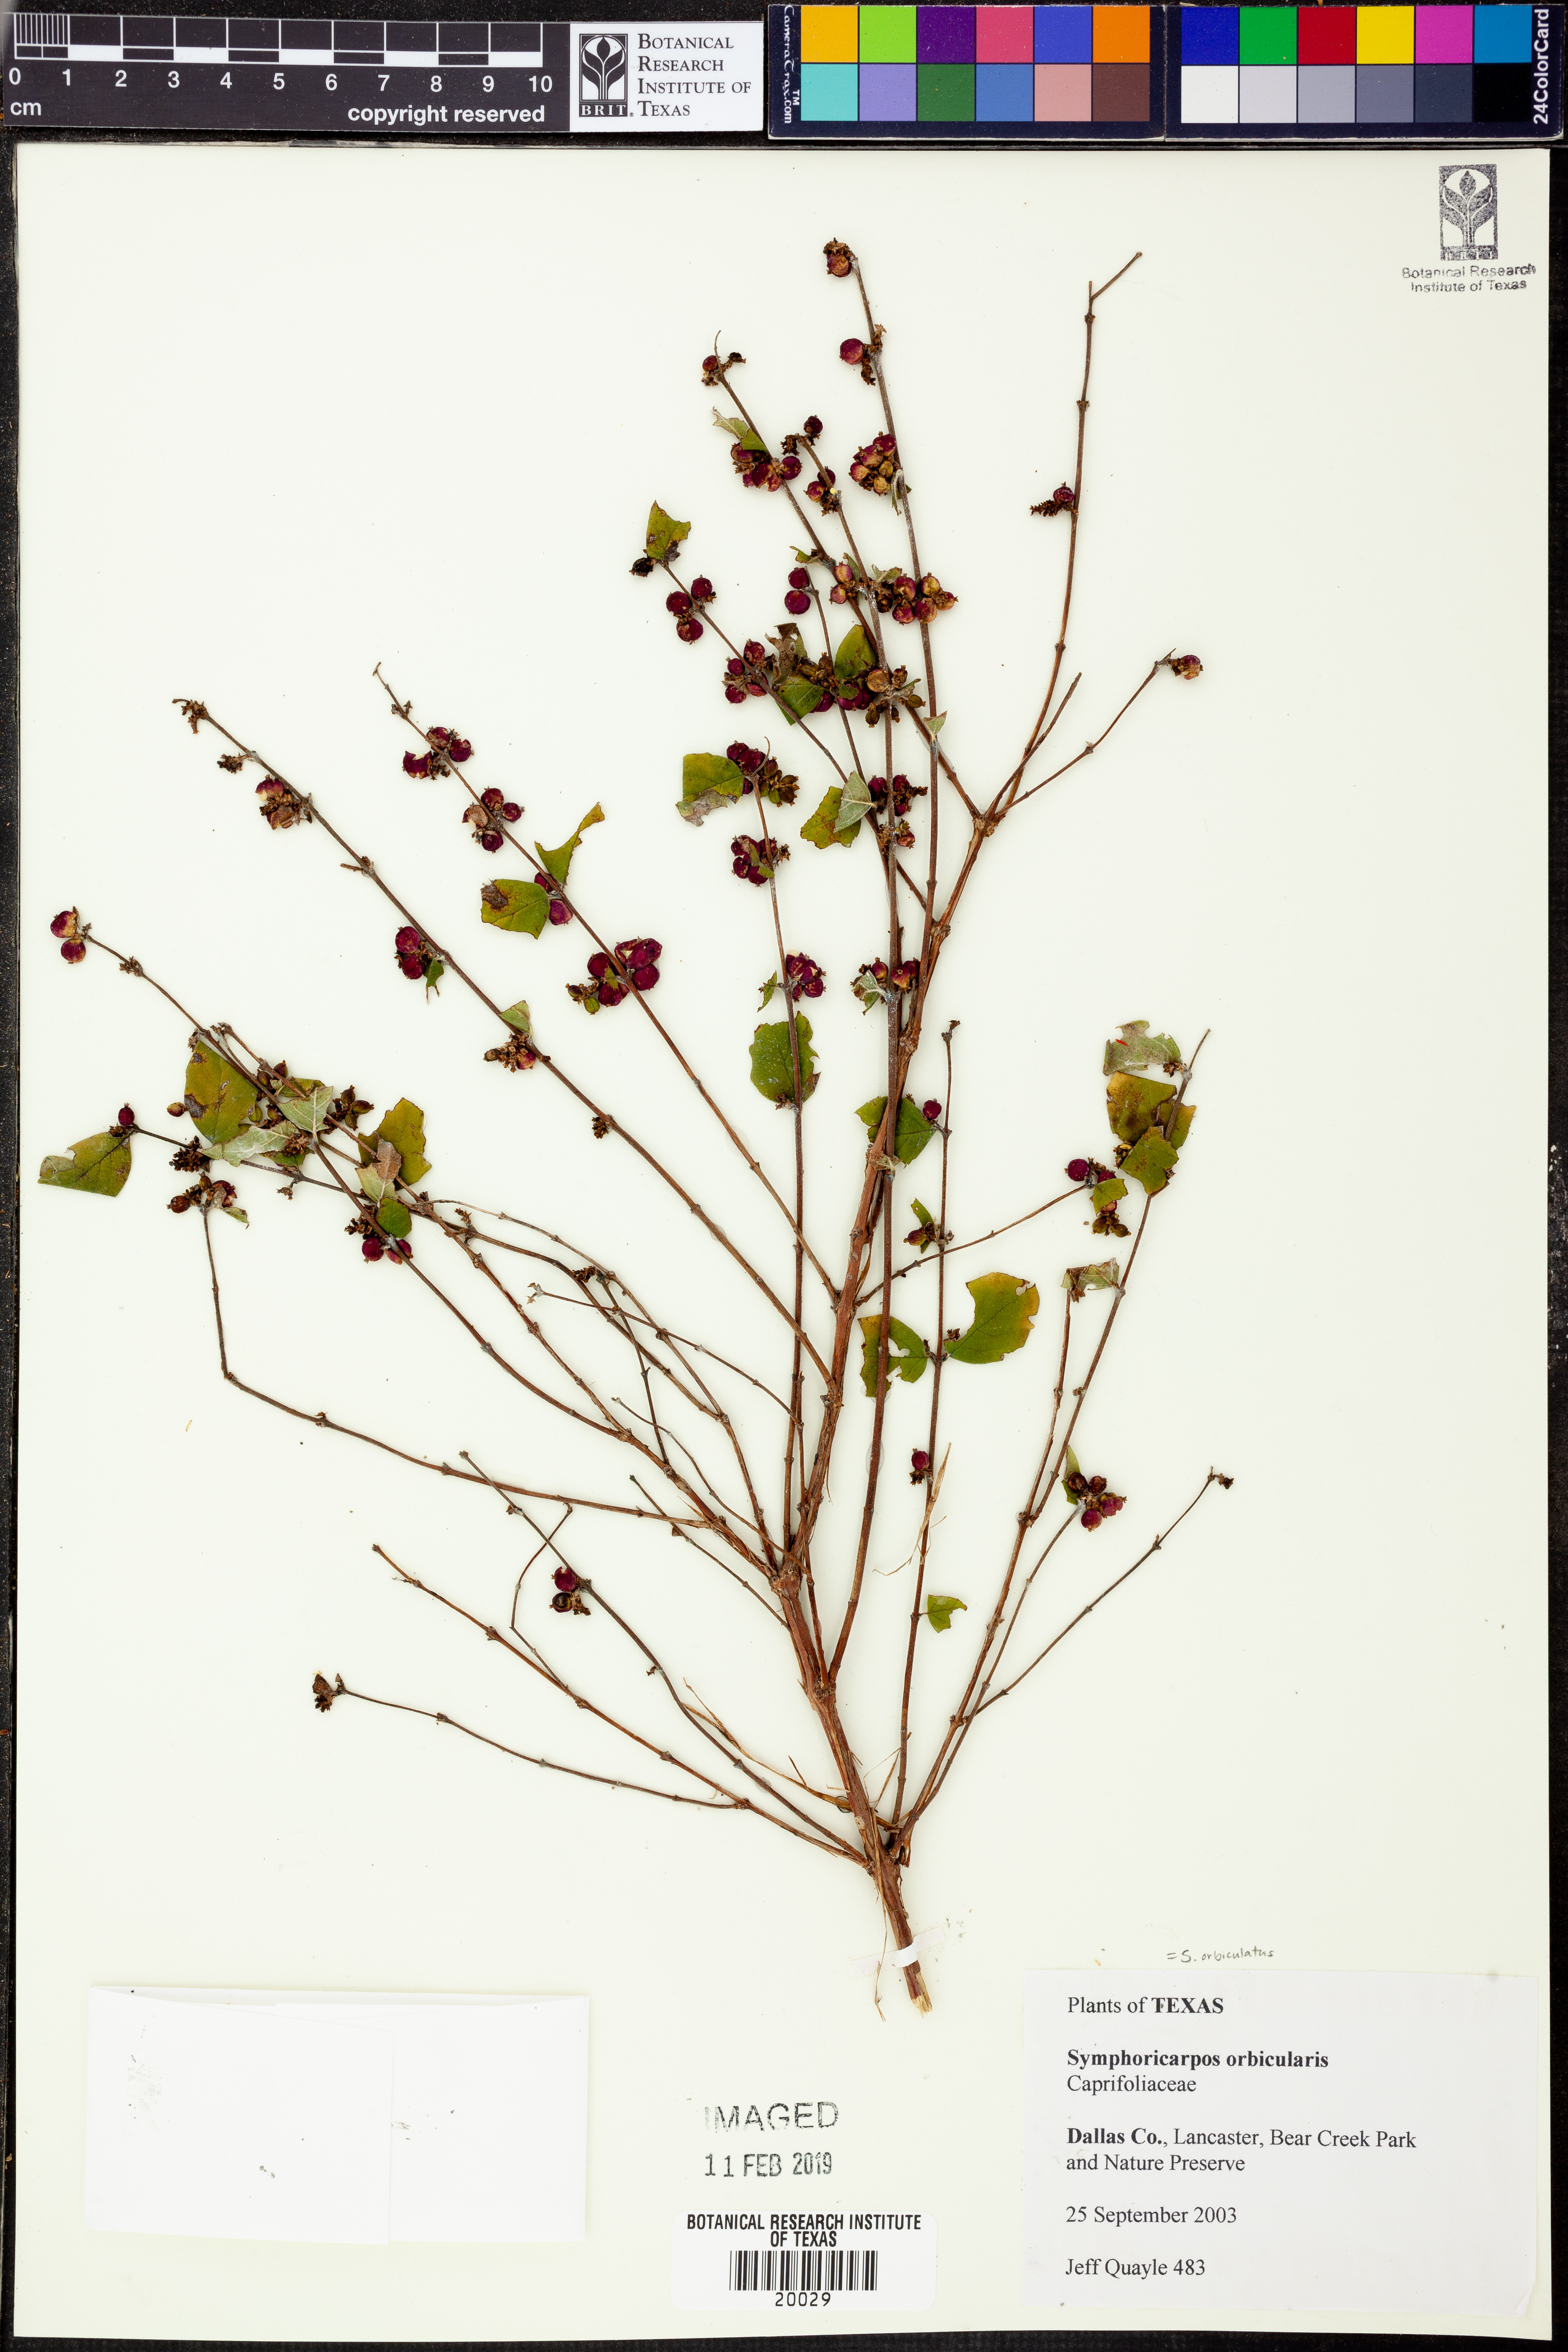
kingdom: Plantae
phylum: Tracheophyta
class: Magnoliopsida
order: Dipsacales
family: Caprifoliaceae
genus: Symphoricarpos
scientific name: Symphoricarpos orbiculatus
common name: Coralberry
